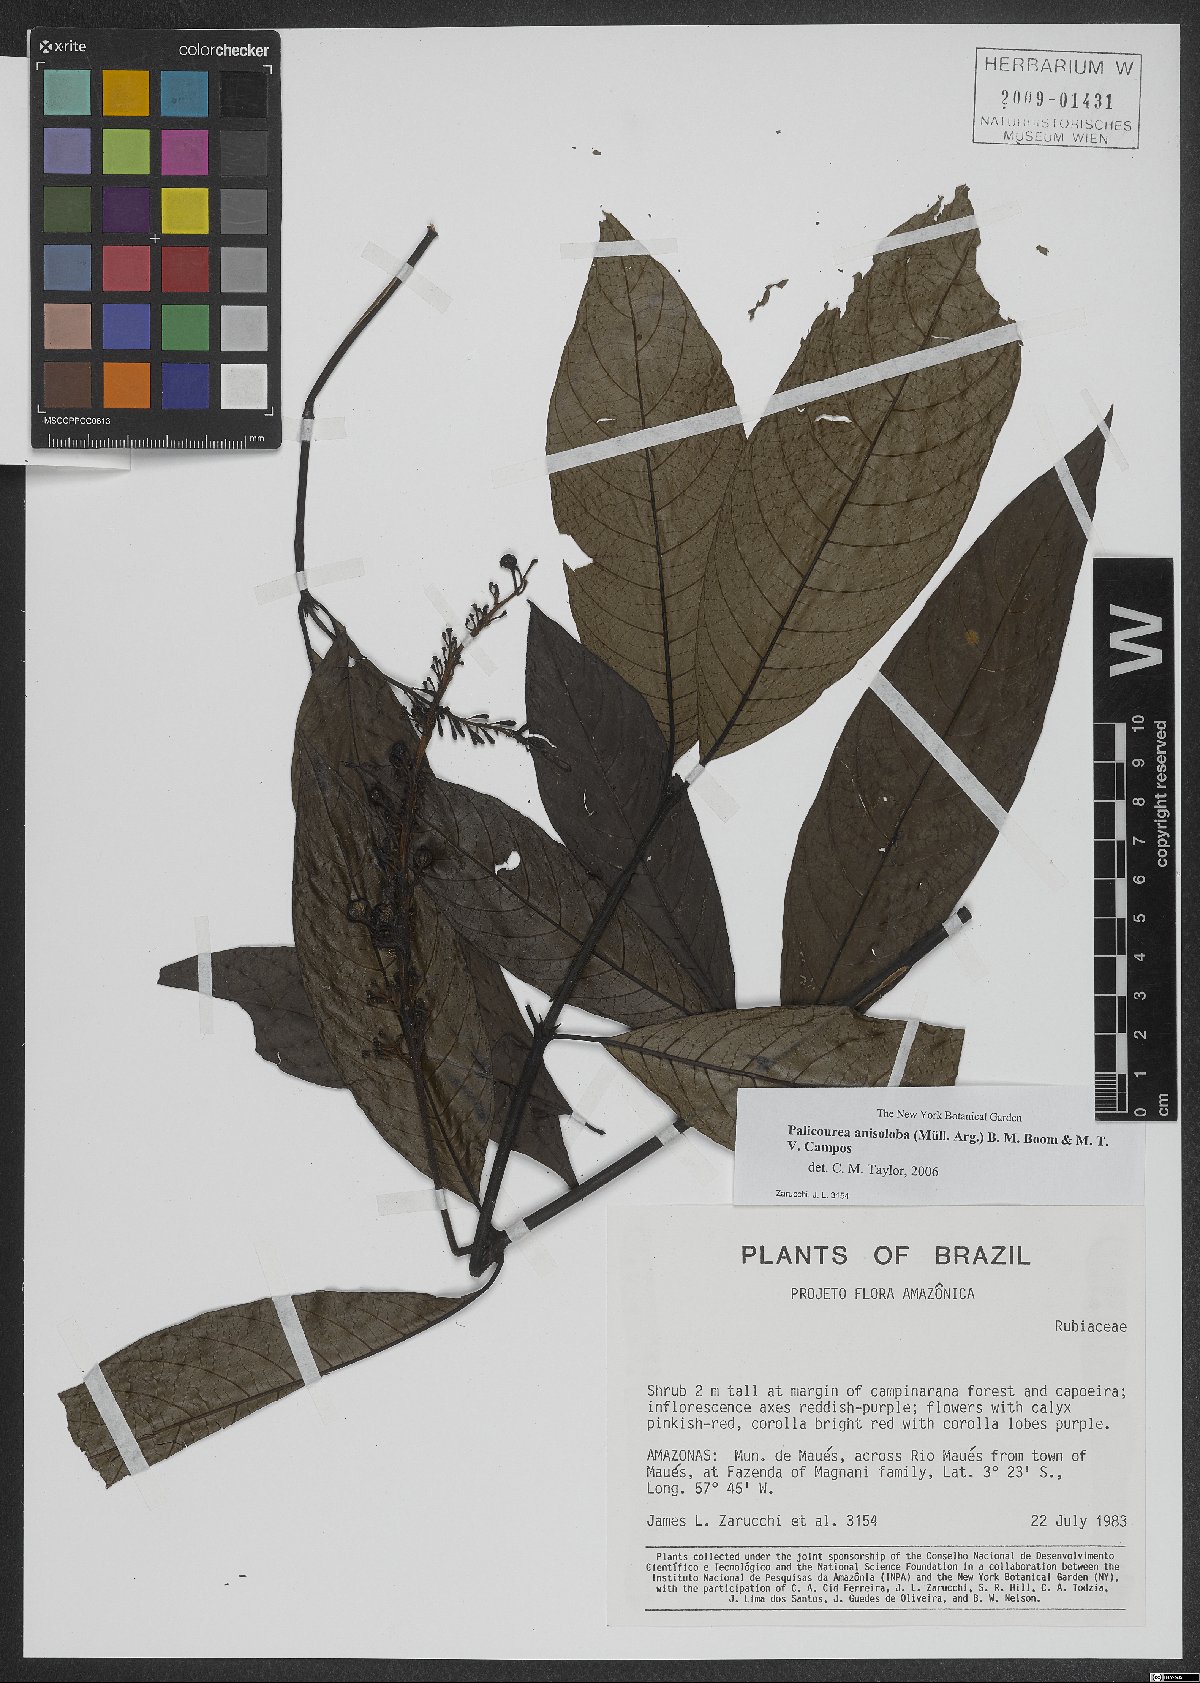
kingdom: Plantae
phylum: Tracheophyta
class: Magnoliopsida
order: Gentianales
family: Rubiaceae
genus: Palicourea
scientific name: Palicourea anisoloba
